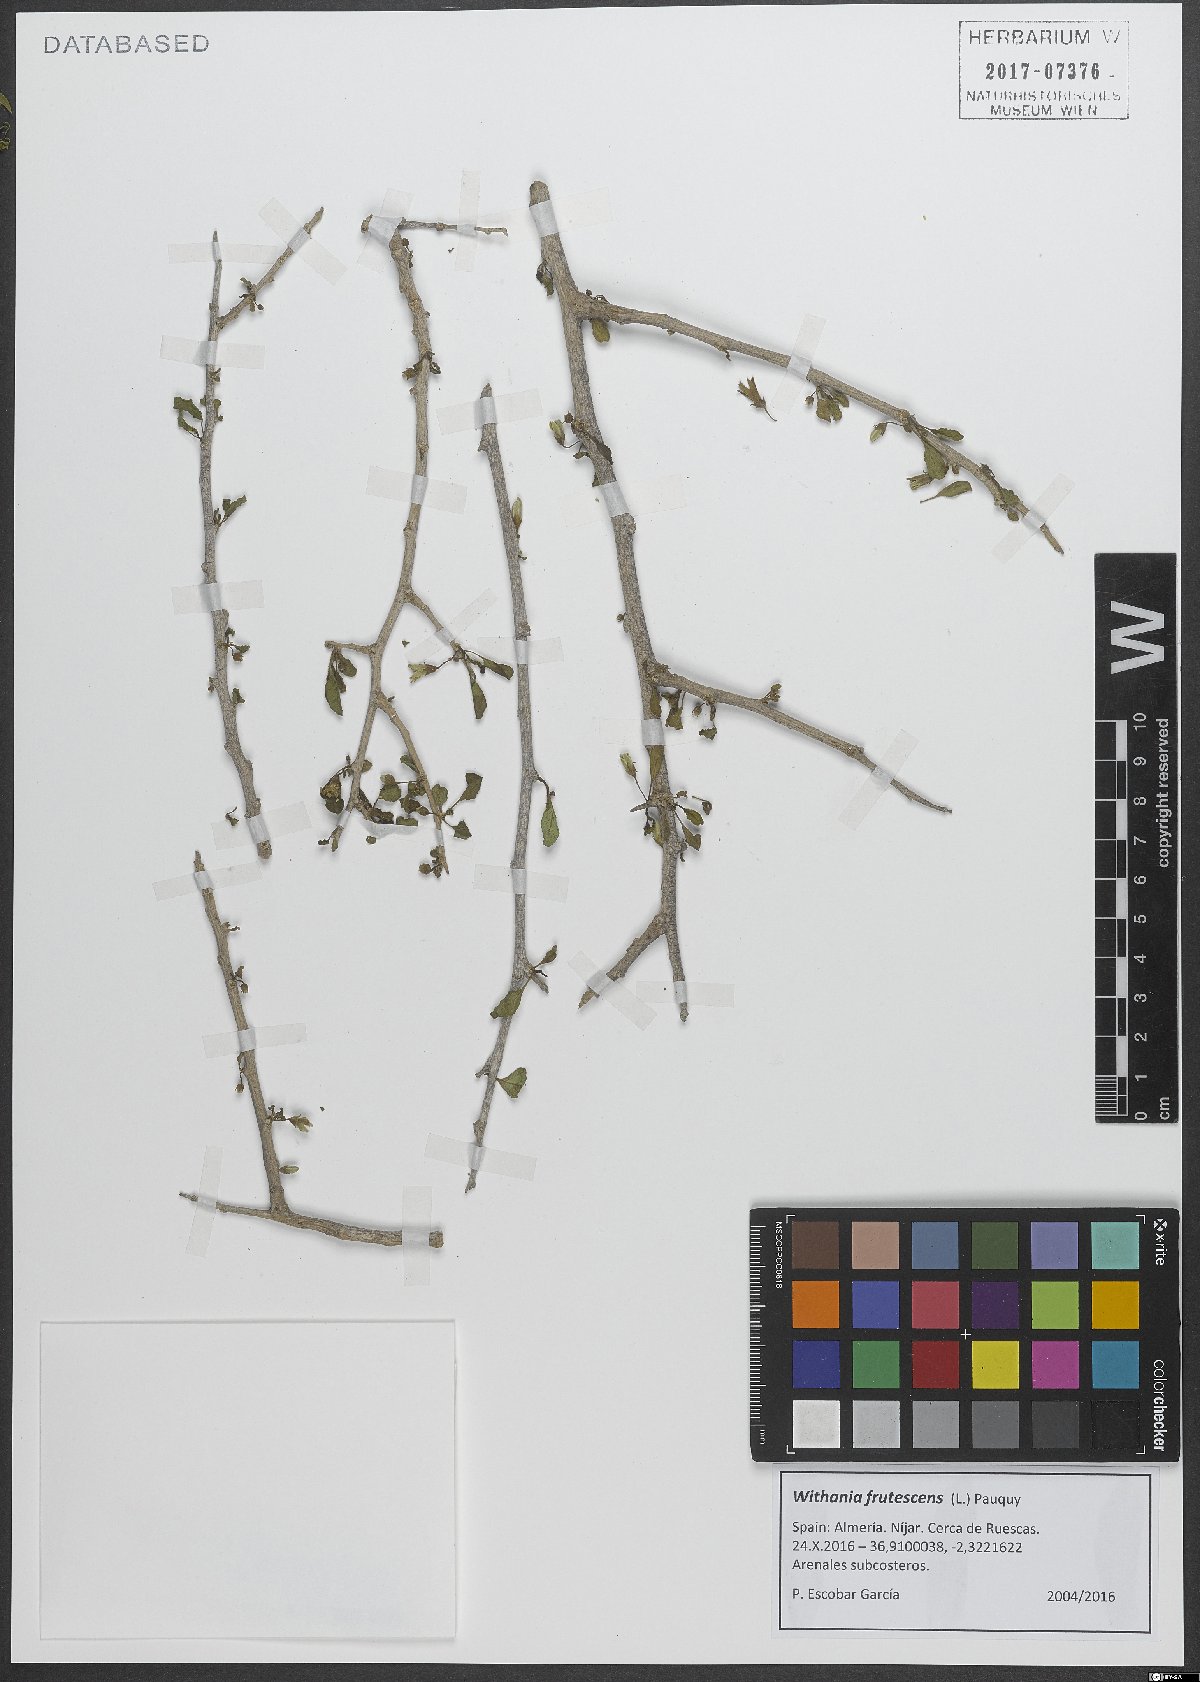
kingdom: Plantae
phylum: Tracheophyta
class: Magnoliopsida
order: Solanales
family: Solanaceae
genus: Withania
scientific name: Withania frutescens
